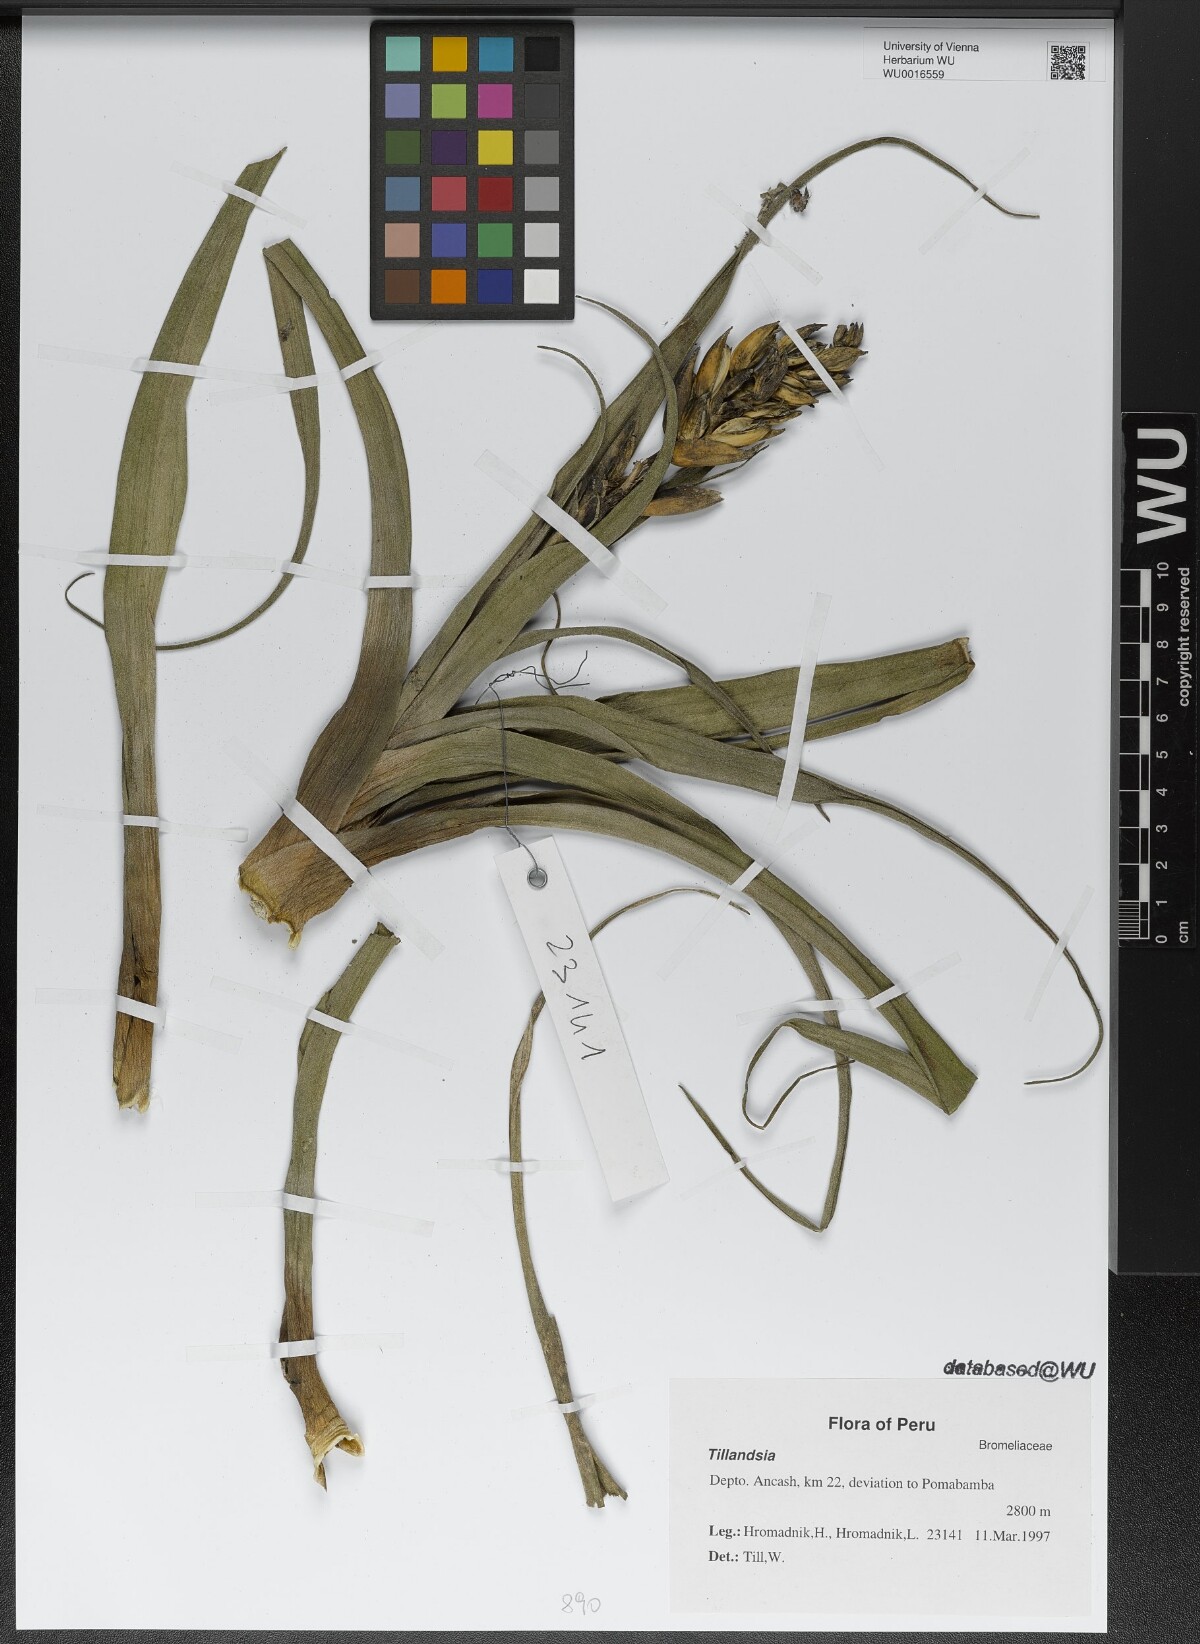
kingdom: Plantae
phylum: Tracheophyta
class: Liliopsida
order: Poales
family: Bromeliaceae
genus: Tillandsia
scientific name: Tillandsia
